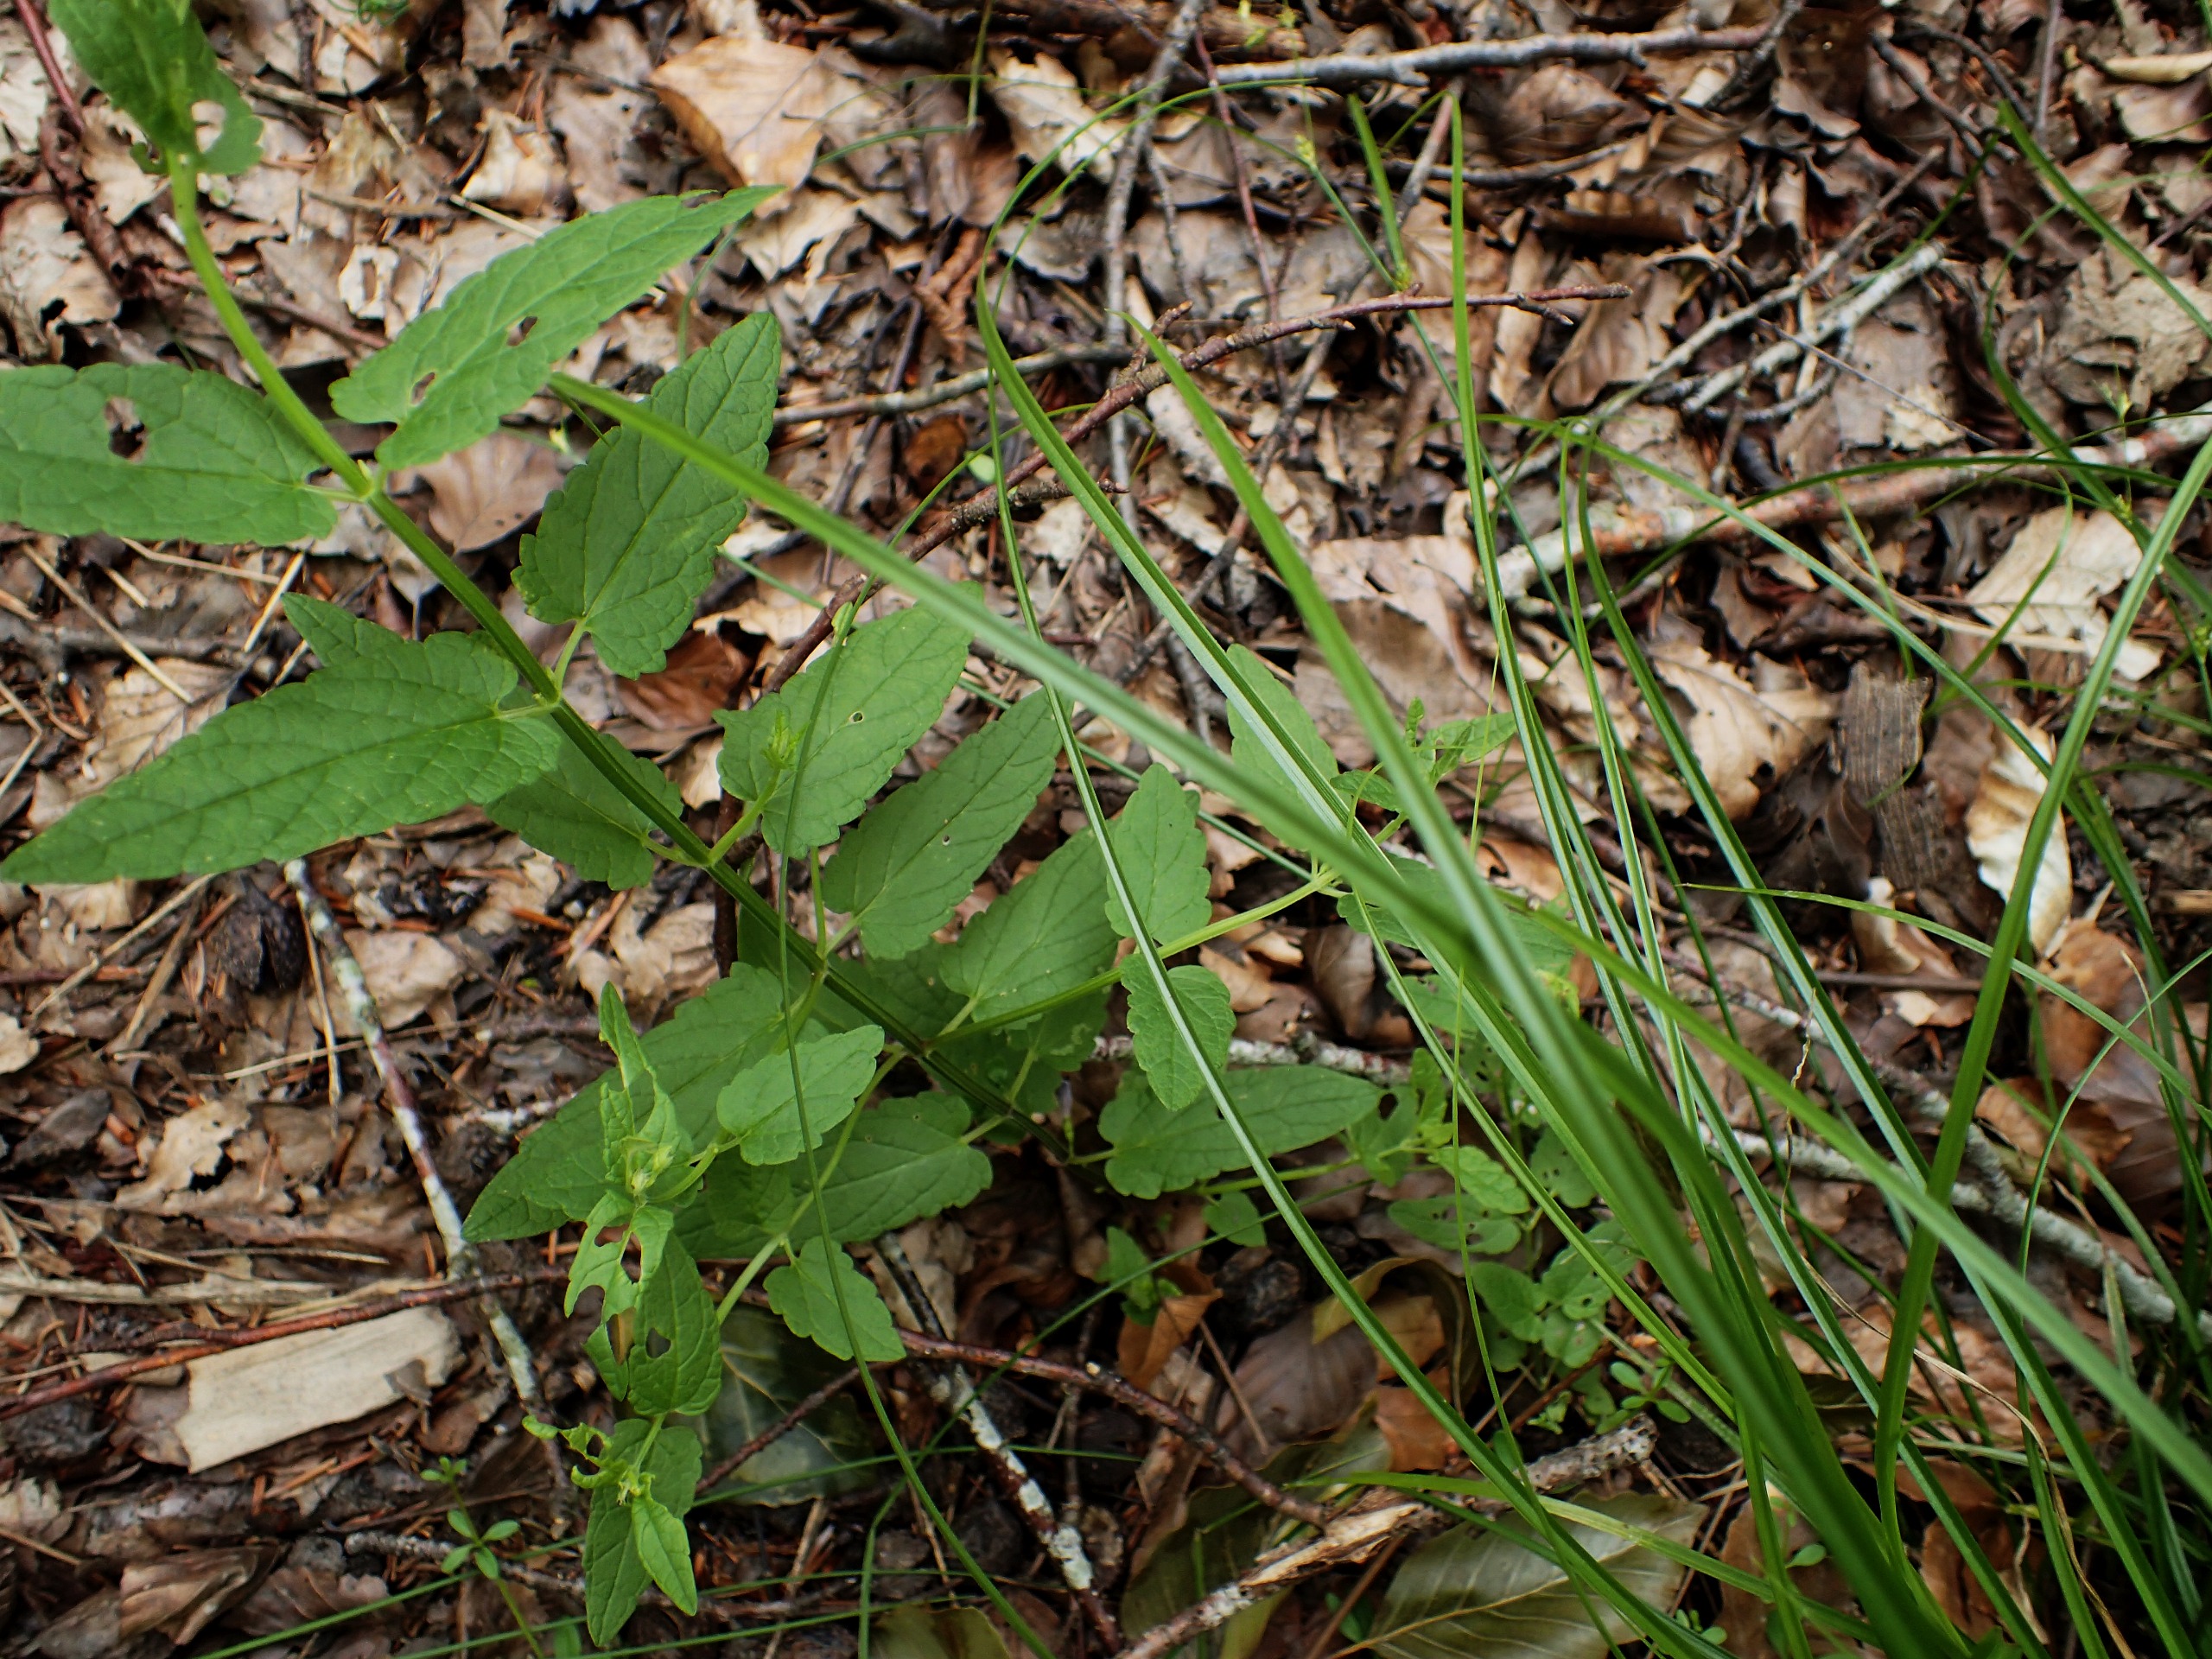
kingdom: Plantae
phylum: Tracheophyta
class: Magnoliopsida
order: Lamiales
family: Lamiaceae
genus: Scutellaria
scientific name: Scutellaria galericulata
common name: Almindelig skjolddrager
